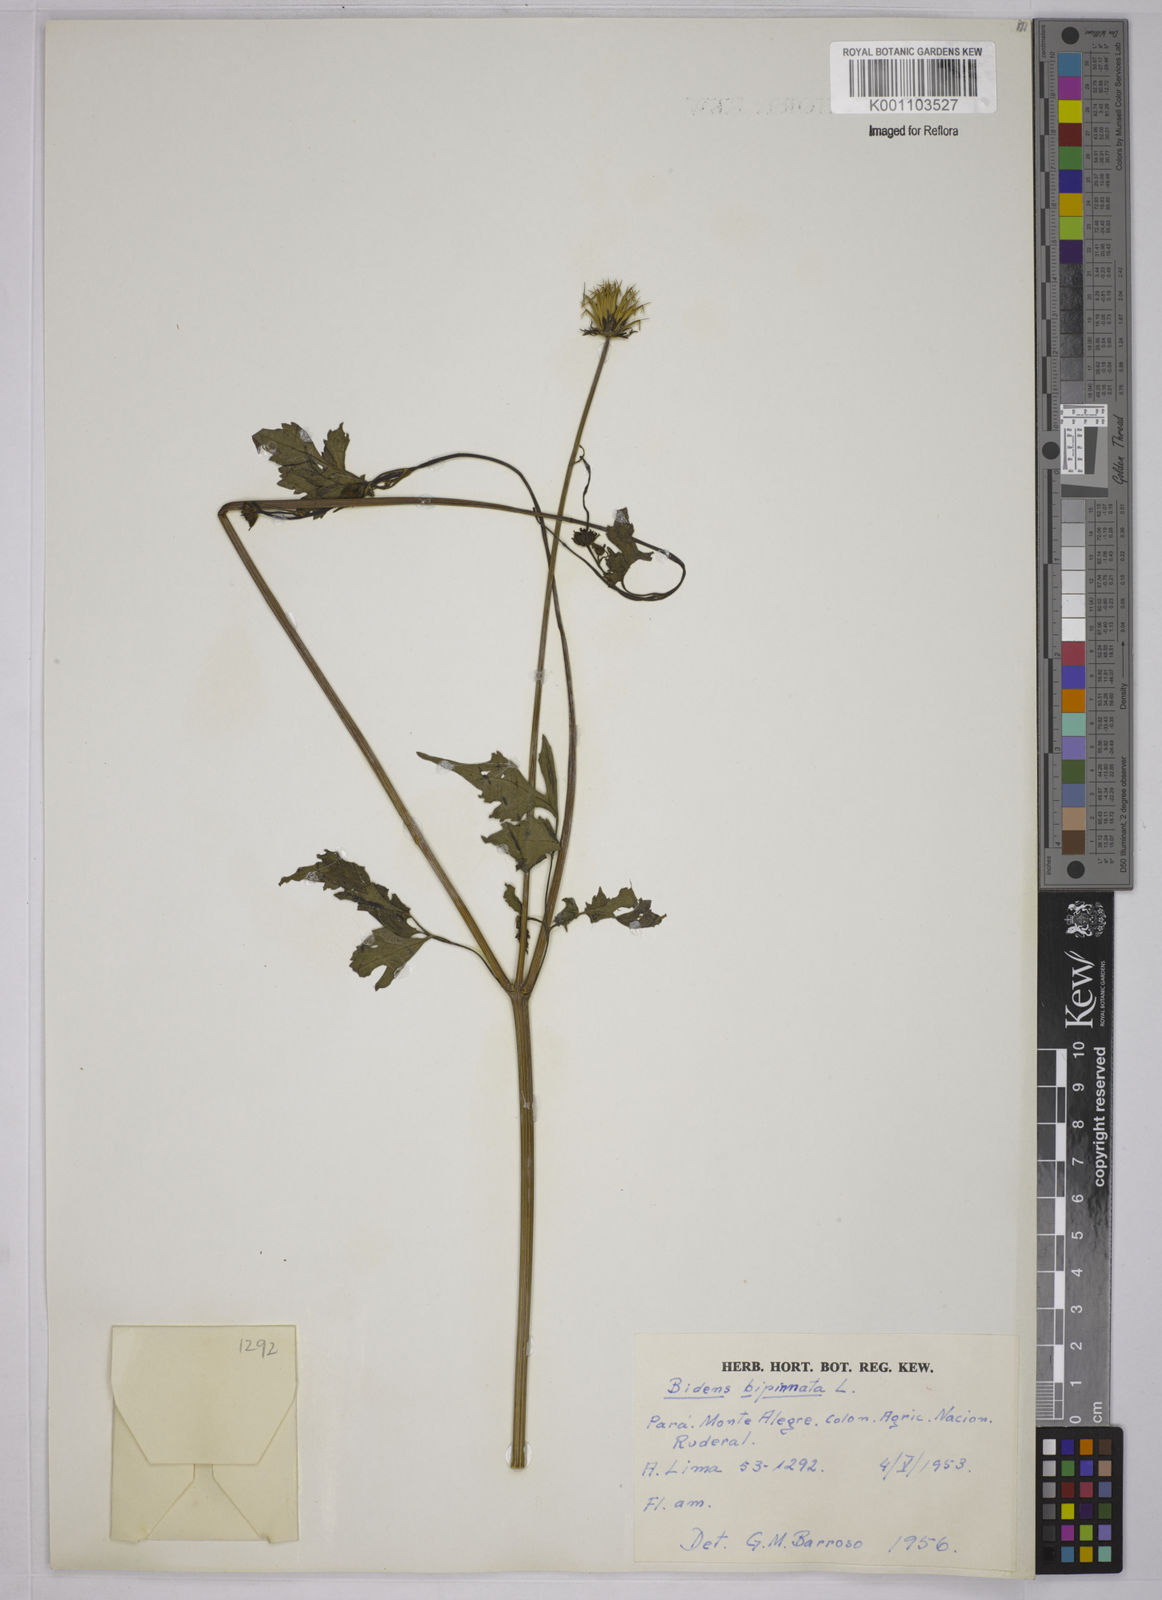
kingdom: Plantae
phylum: Tracheophyta
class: Magnoliopsida
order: Asterales
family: Asteraceae
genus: Bidens
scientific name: Bidens bipinnata
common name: Spanish-needles
